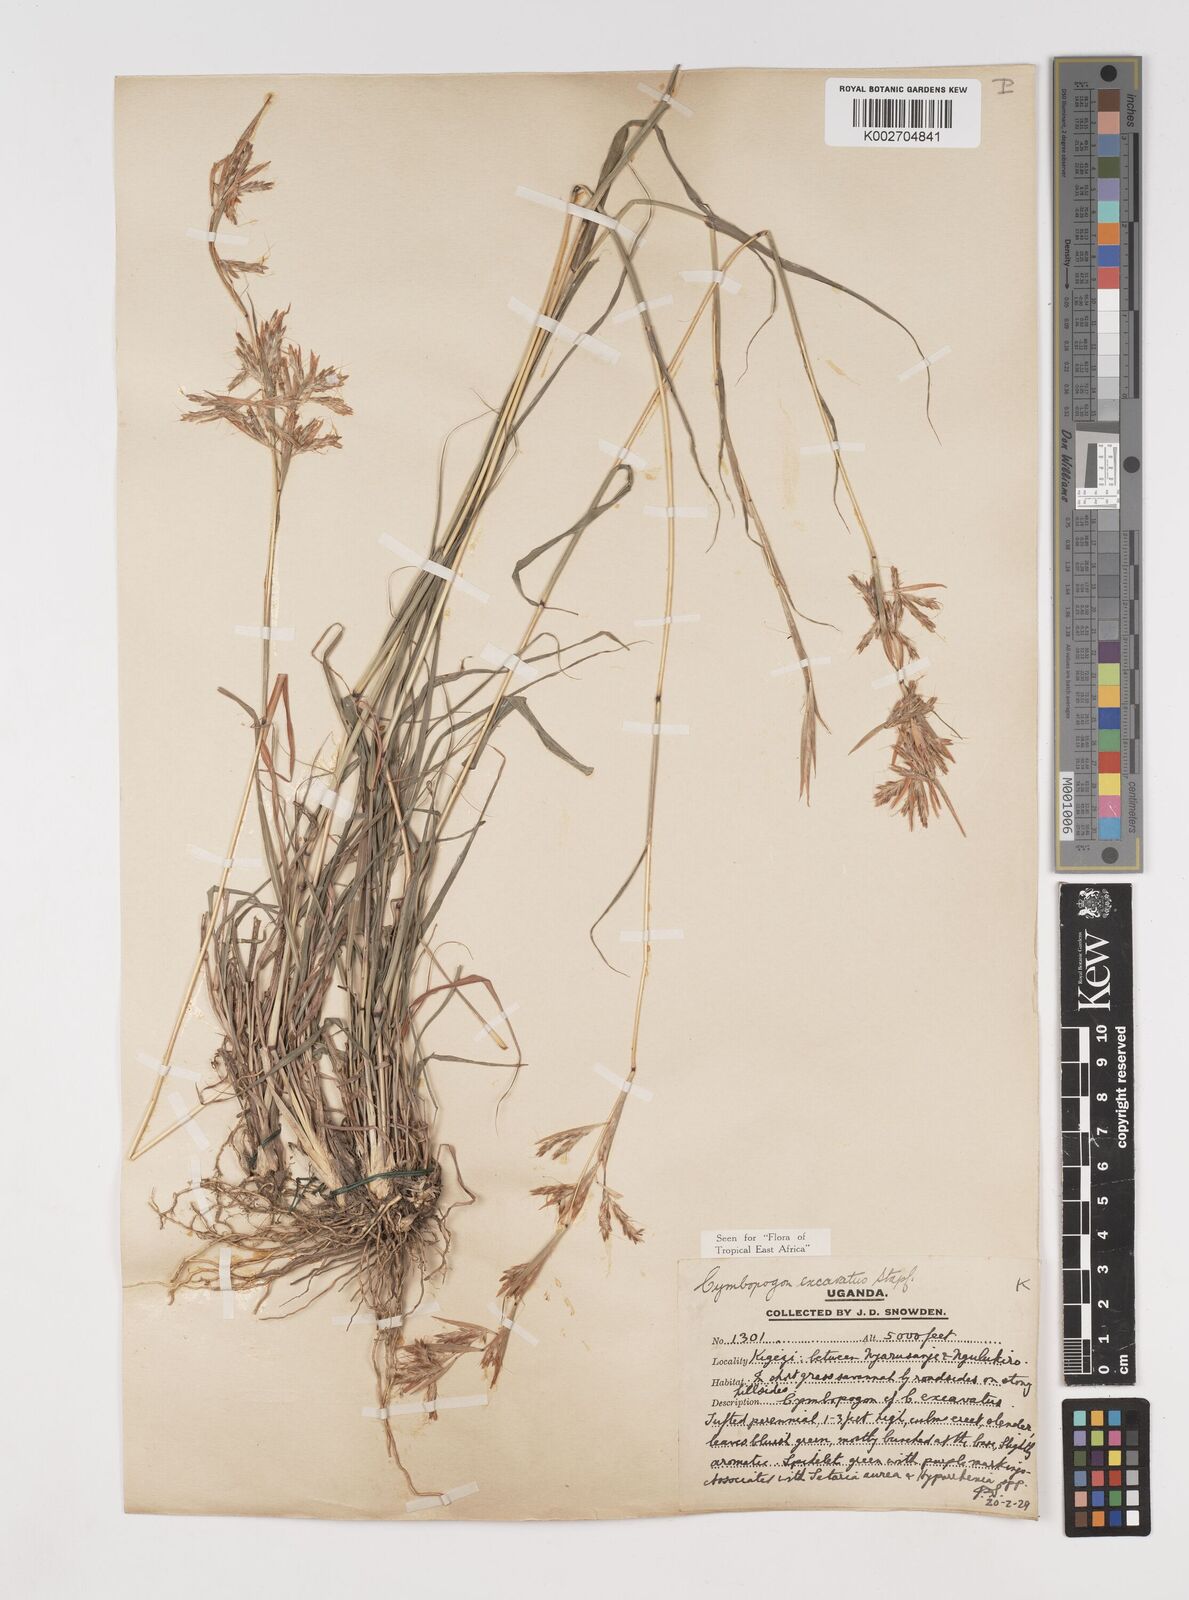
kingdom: Plantae
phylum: Tracheophyta
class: Liliopsida
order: Poales
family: Poaceae
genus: Cymbopogon
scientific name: Cymbopogon caesius
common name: Kachi grass
